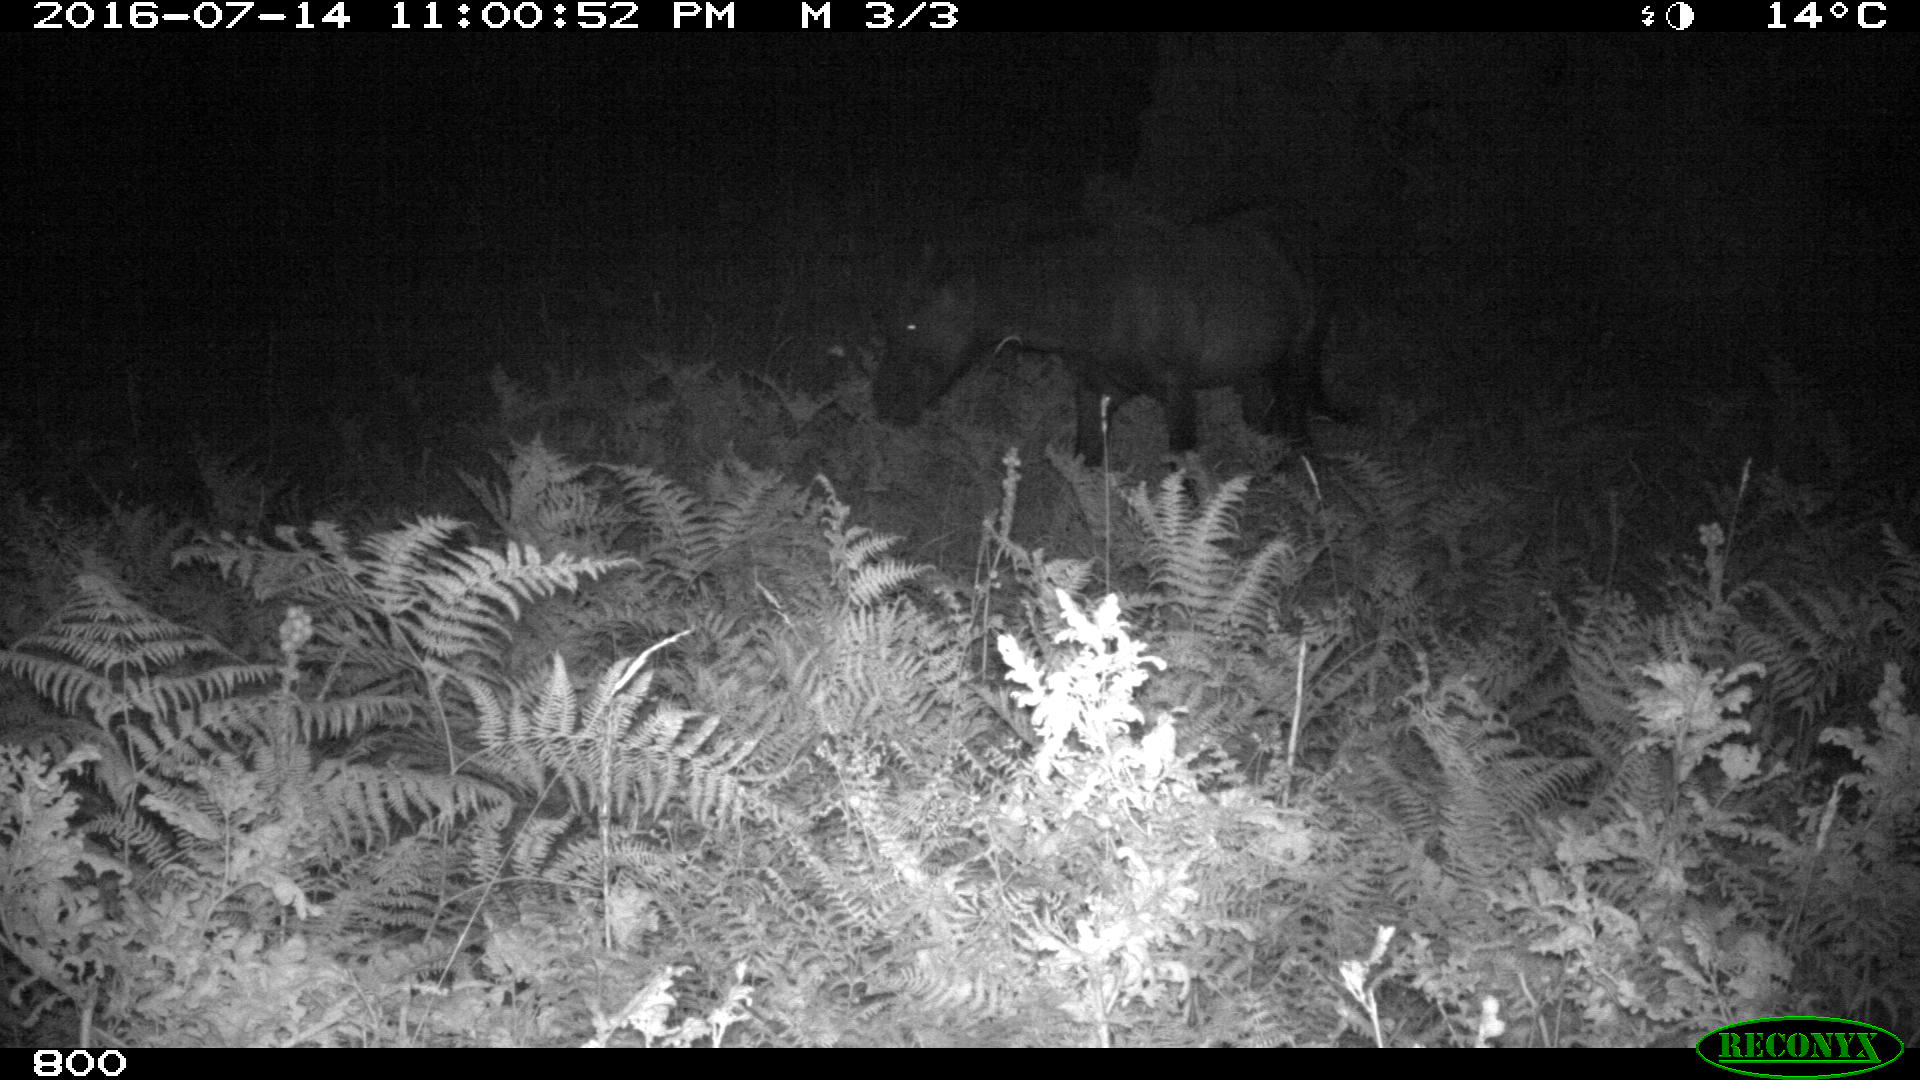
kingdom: Animalia
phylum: Chordata
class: Mammalia
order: Perissodactyla
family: Equidae
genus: Equus
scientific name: Equus caballus
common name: Horse
